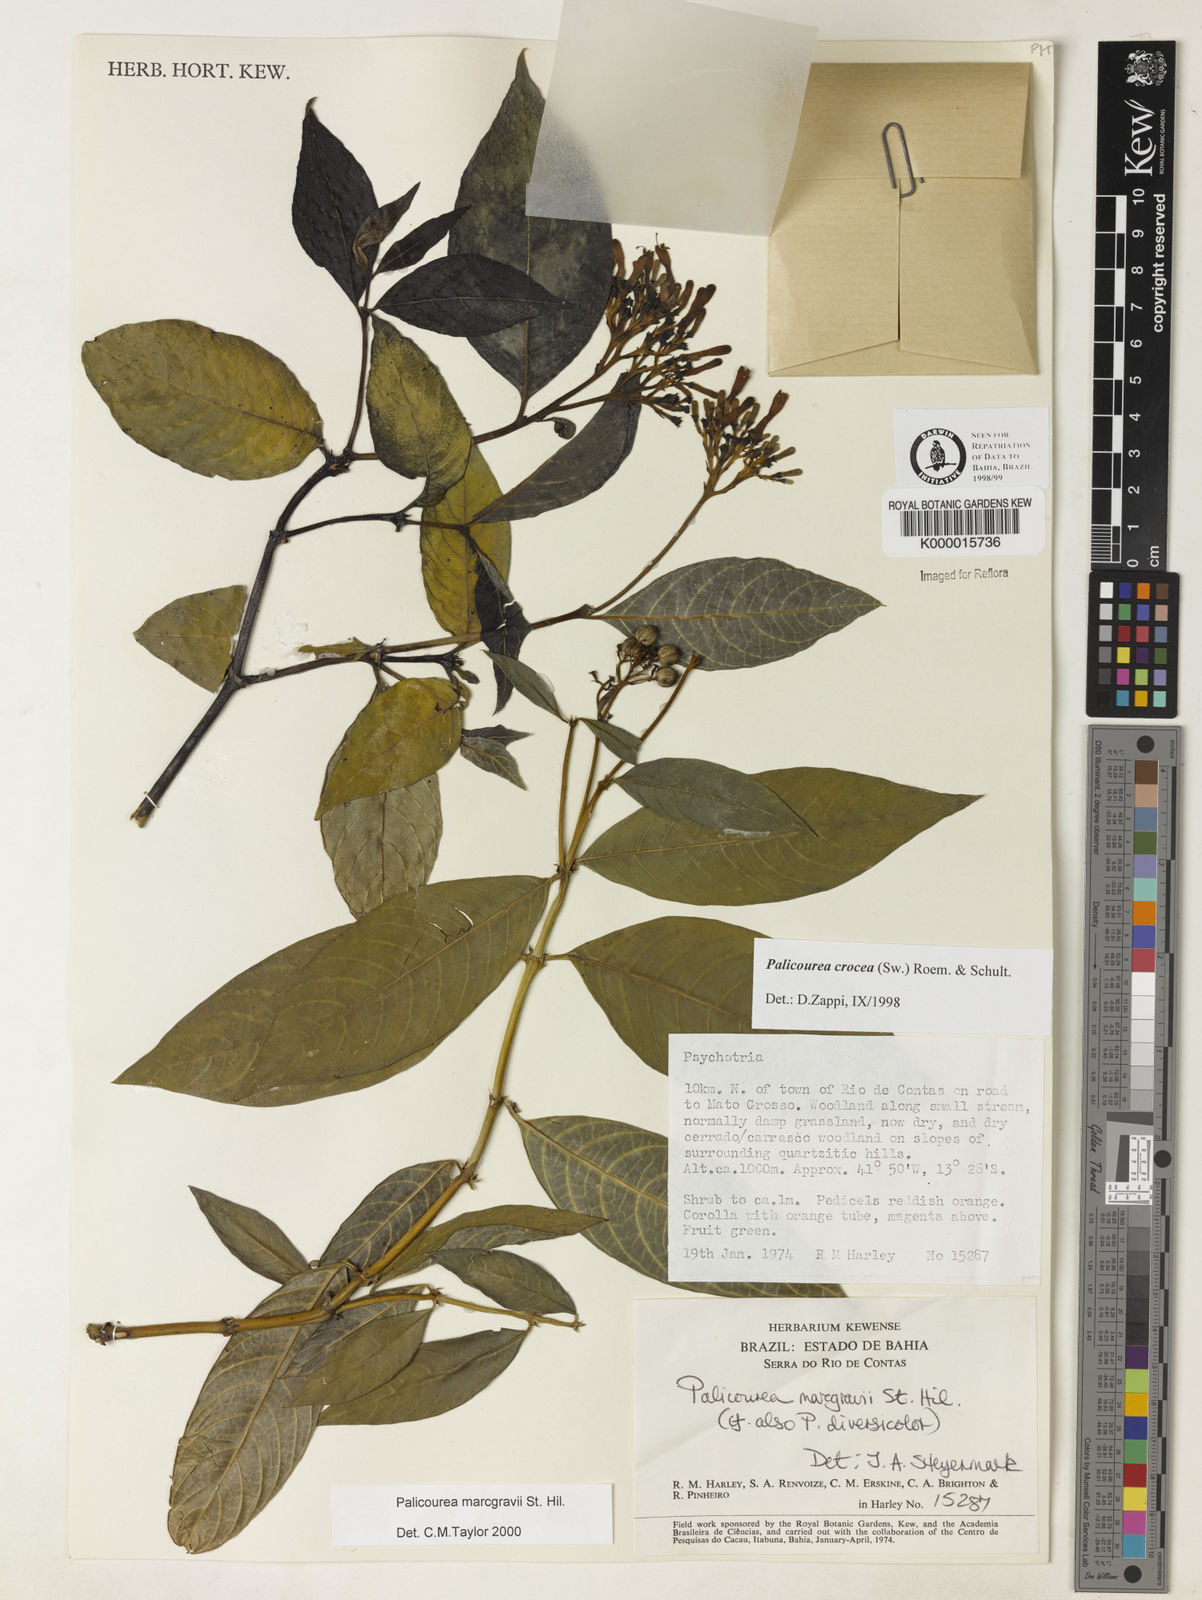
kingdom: Plantae
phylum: Tracheophyta
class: Magnoliopsida
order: Gentianales
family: Rubiaceae
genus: Palicourea
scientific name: Palicourea marcgravii
